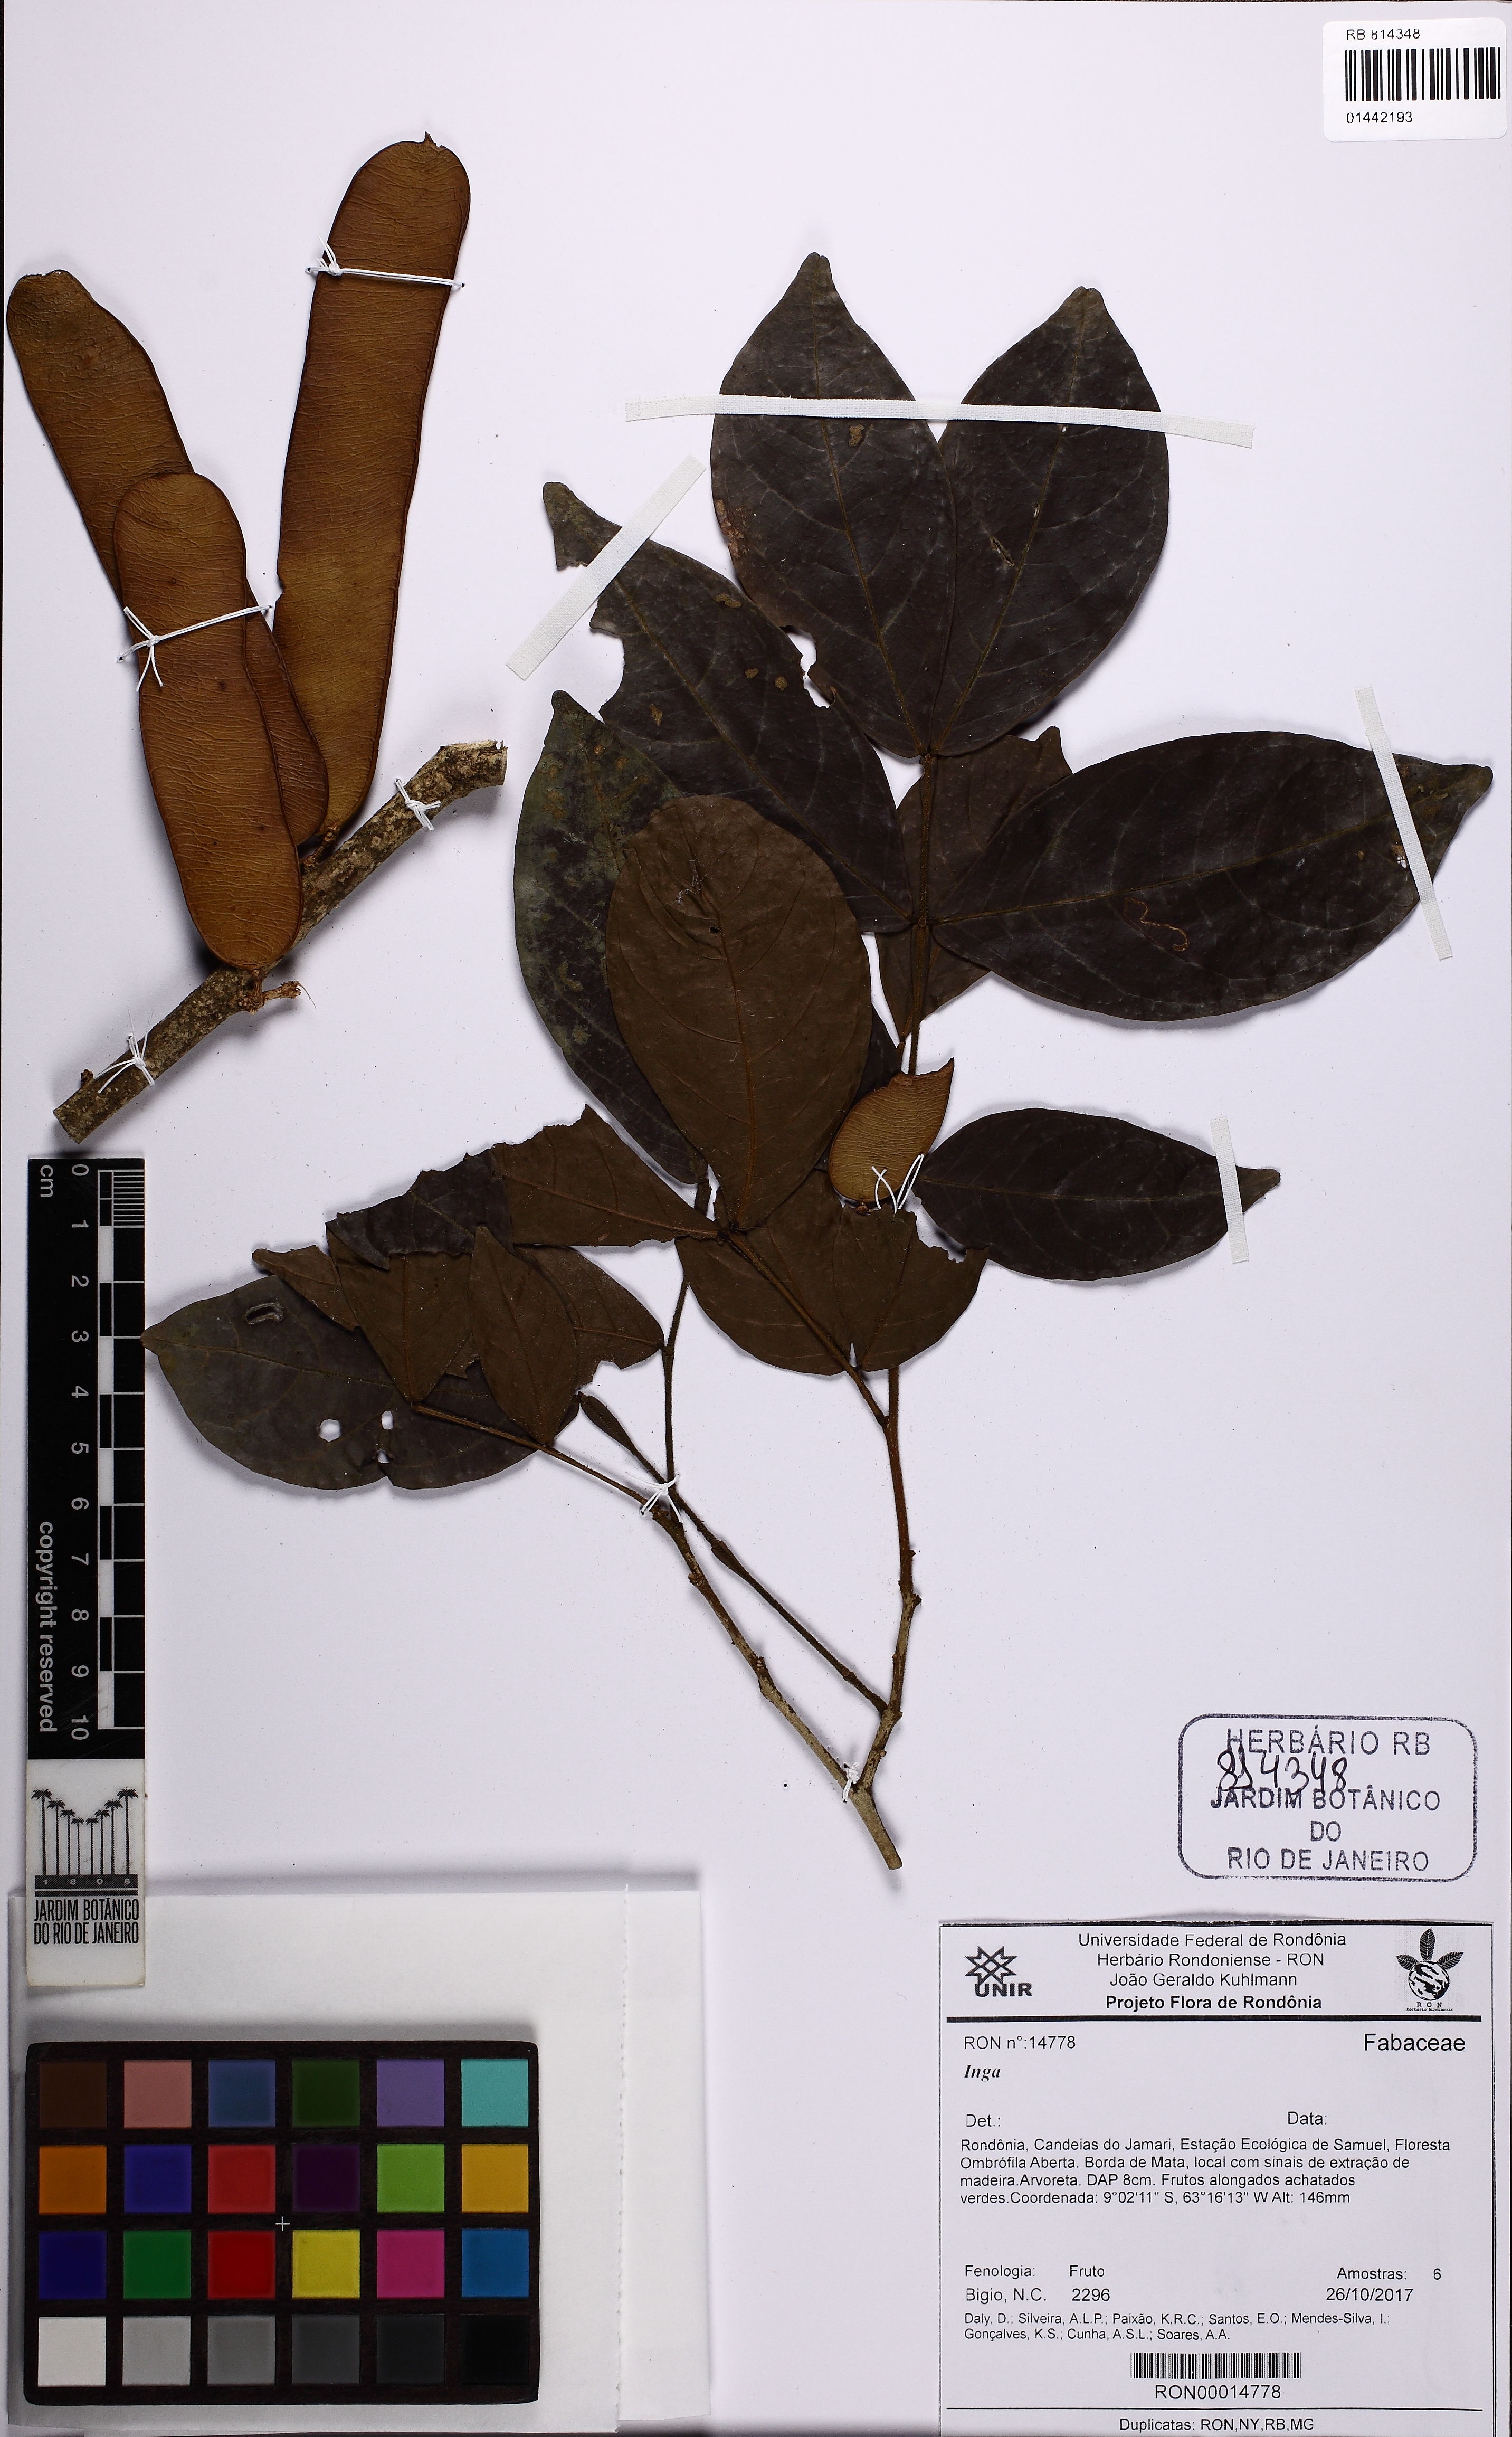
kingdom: Plantae
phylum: Tracheophyta
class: Magnoliopsida
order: Fabales
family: Fabaceae
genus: Inga
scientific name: Inga
